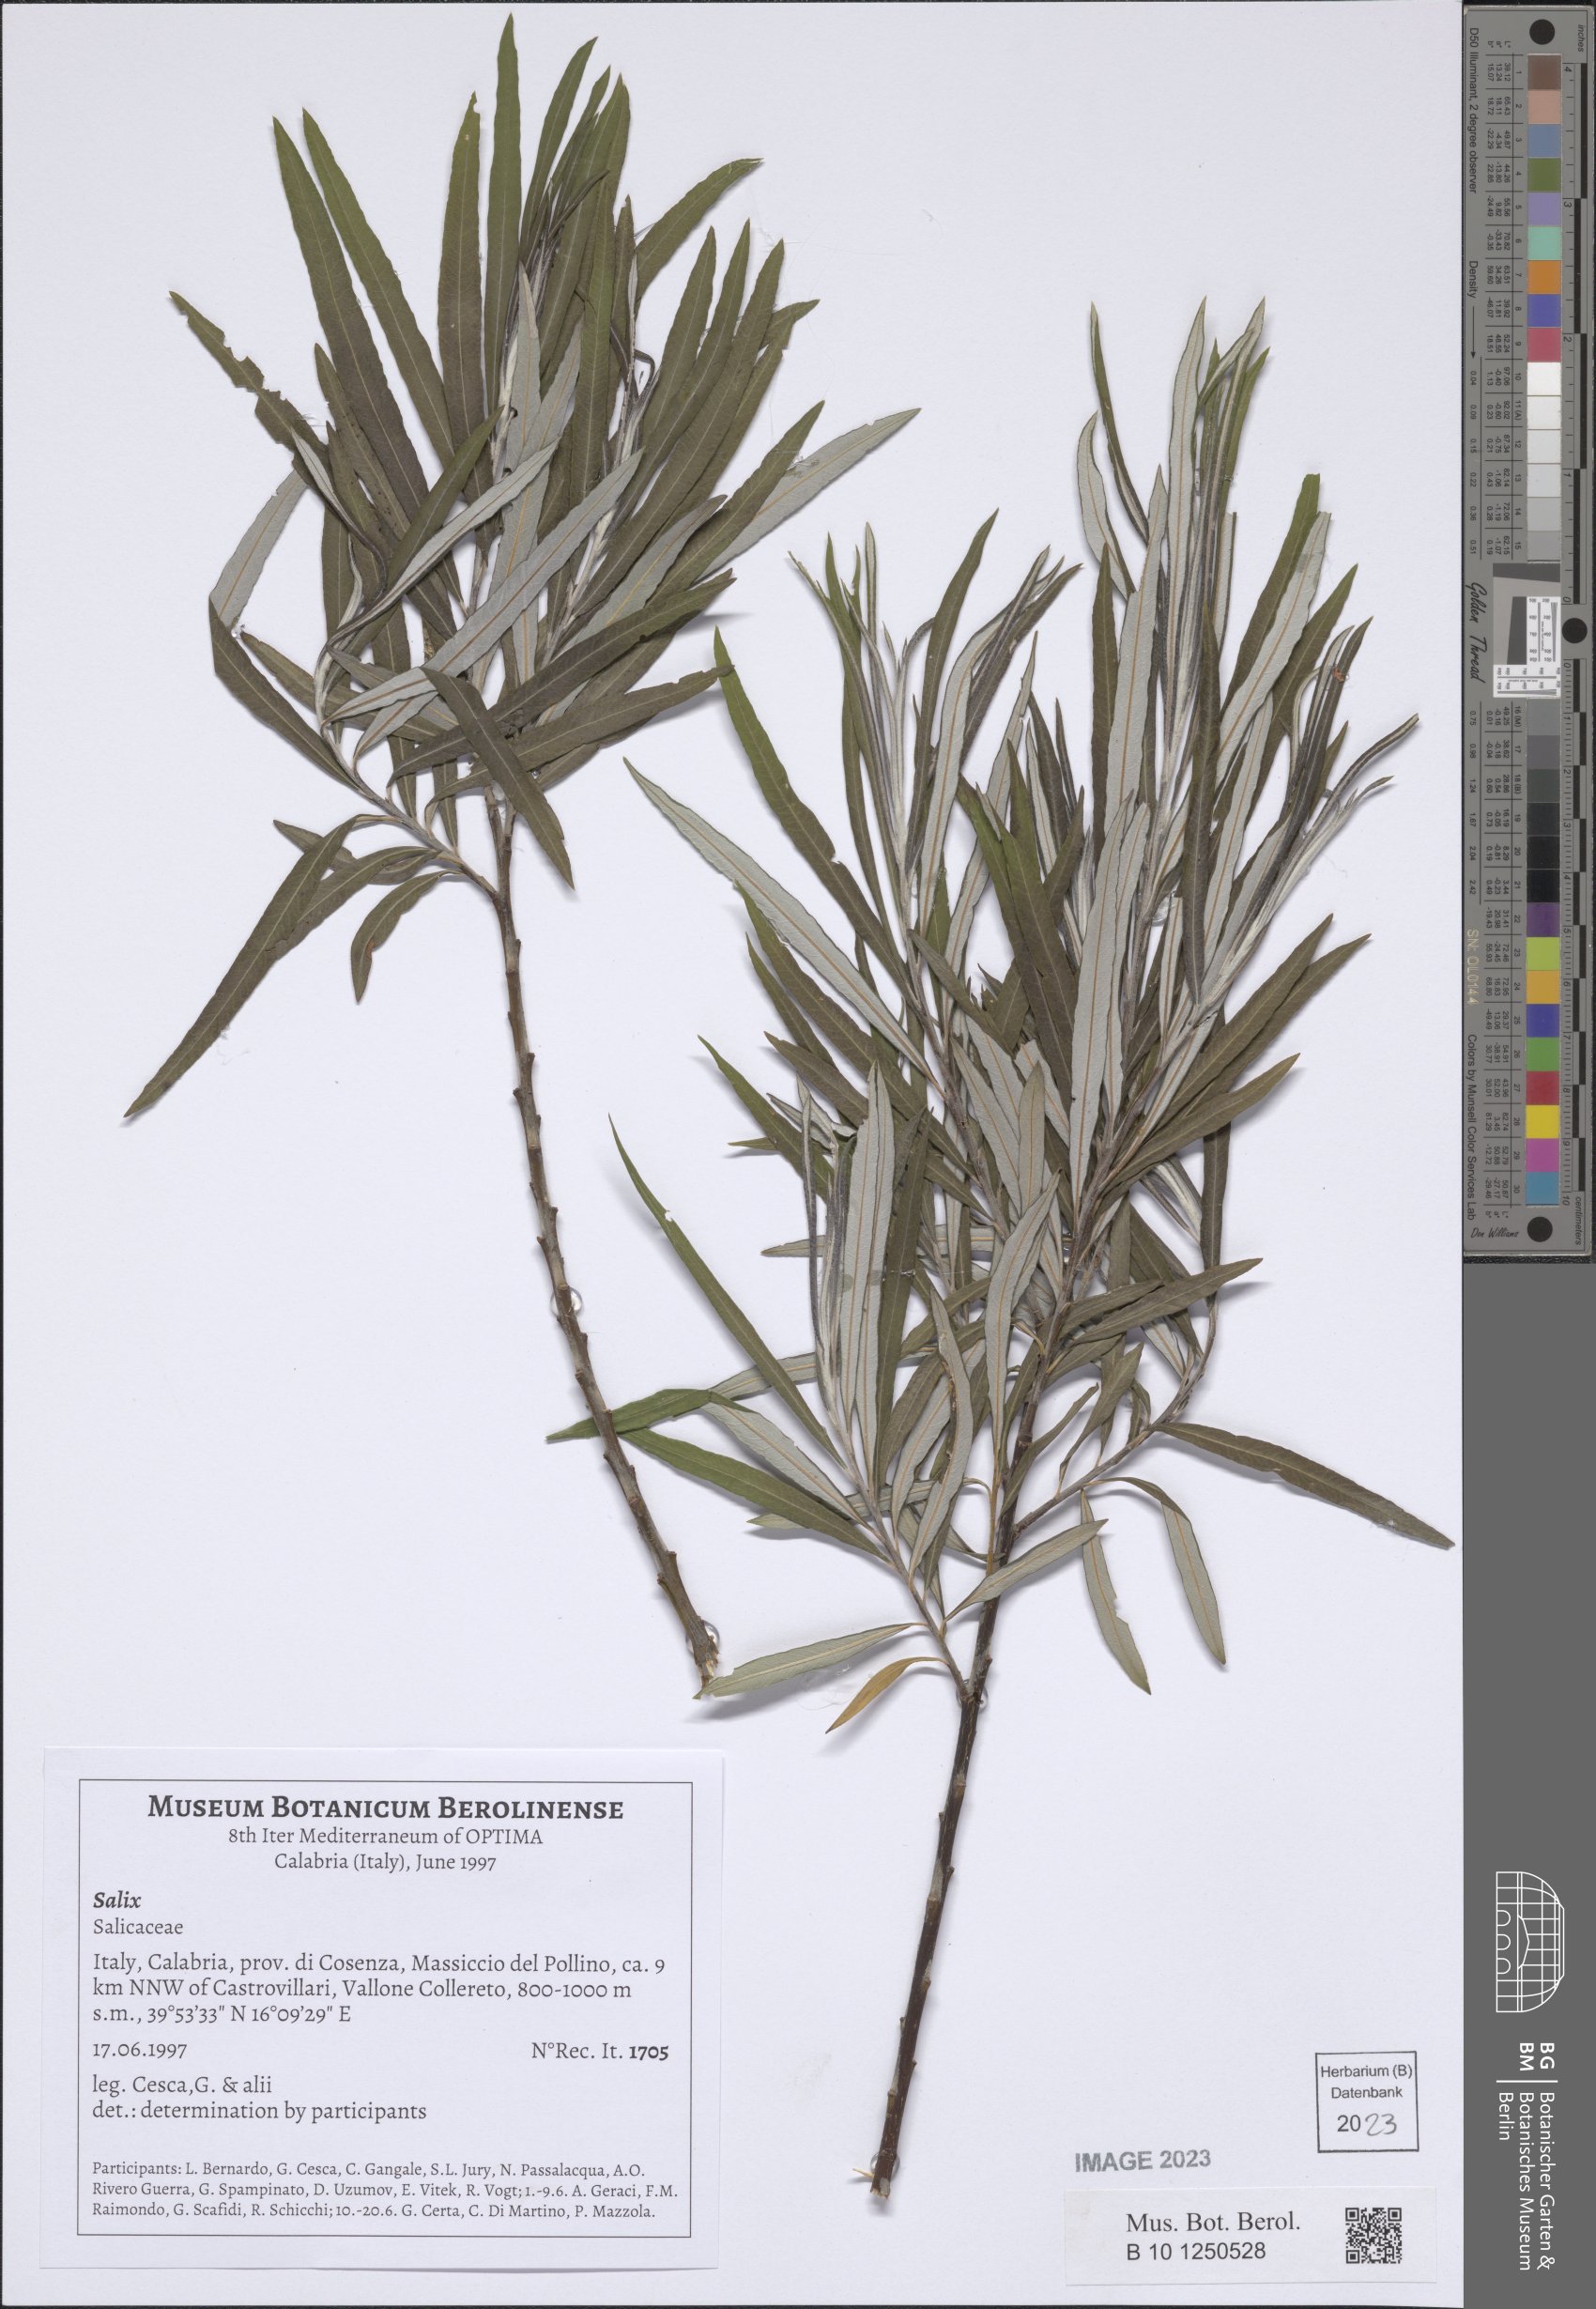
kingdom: Plantae
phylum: Tracheophyta
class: Magnoliopsida
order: Malpighiales
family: Salicaceae
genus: Salix
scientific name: Salix
